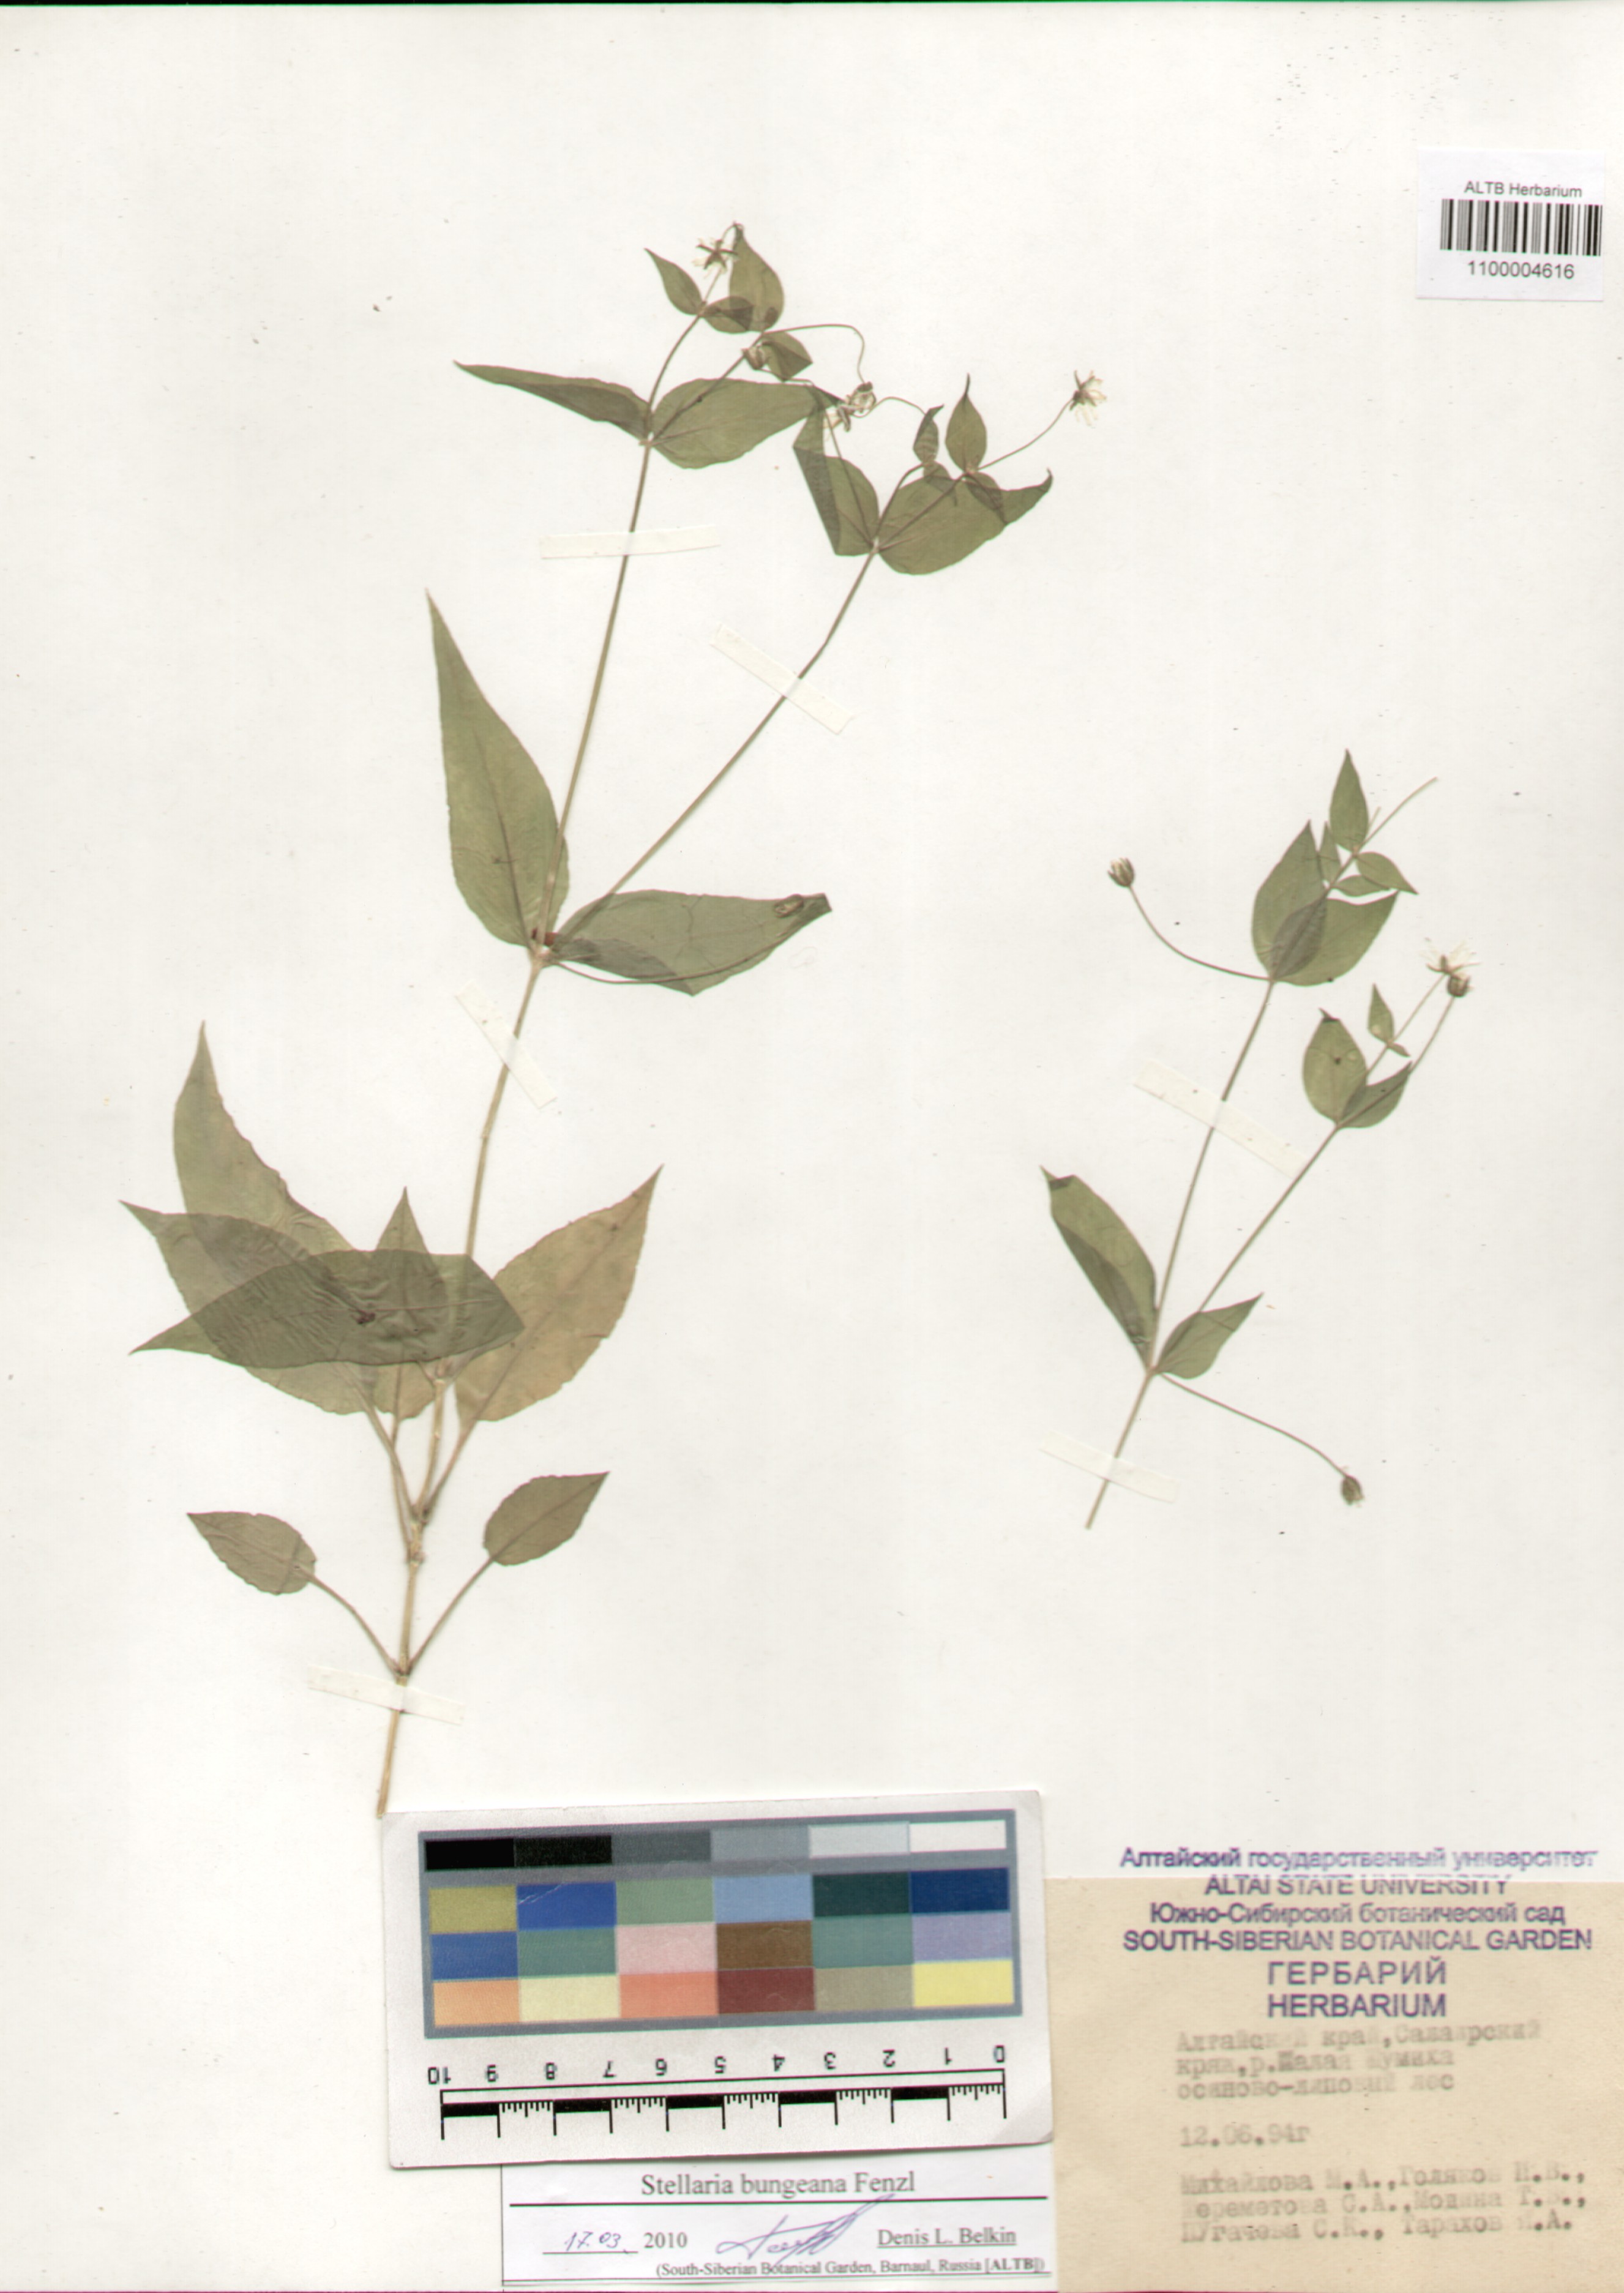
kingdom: Plantae
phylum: Tracheophyta
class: Magnoliopsida
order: Caryophyllales
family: Caryophyllaceae
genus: Stellaria
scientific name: Stellaria bungeana
